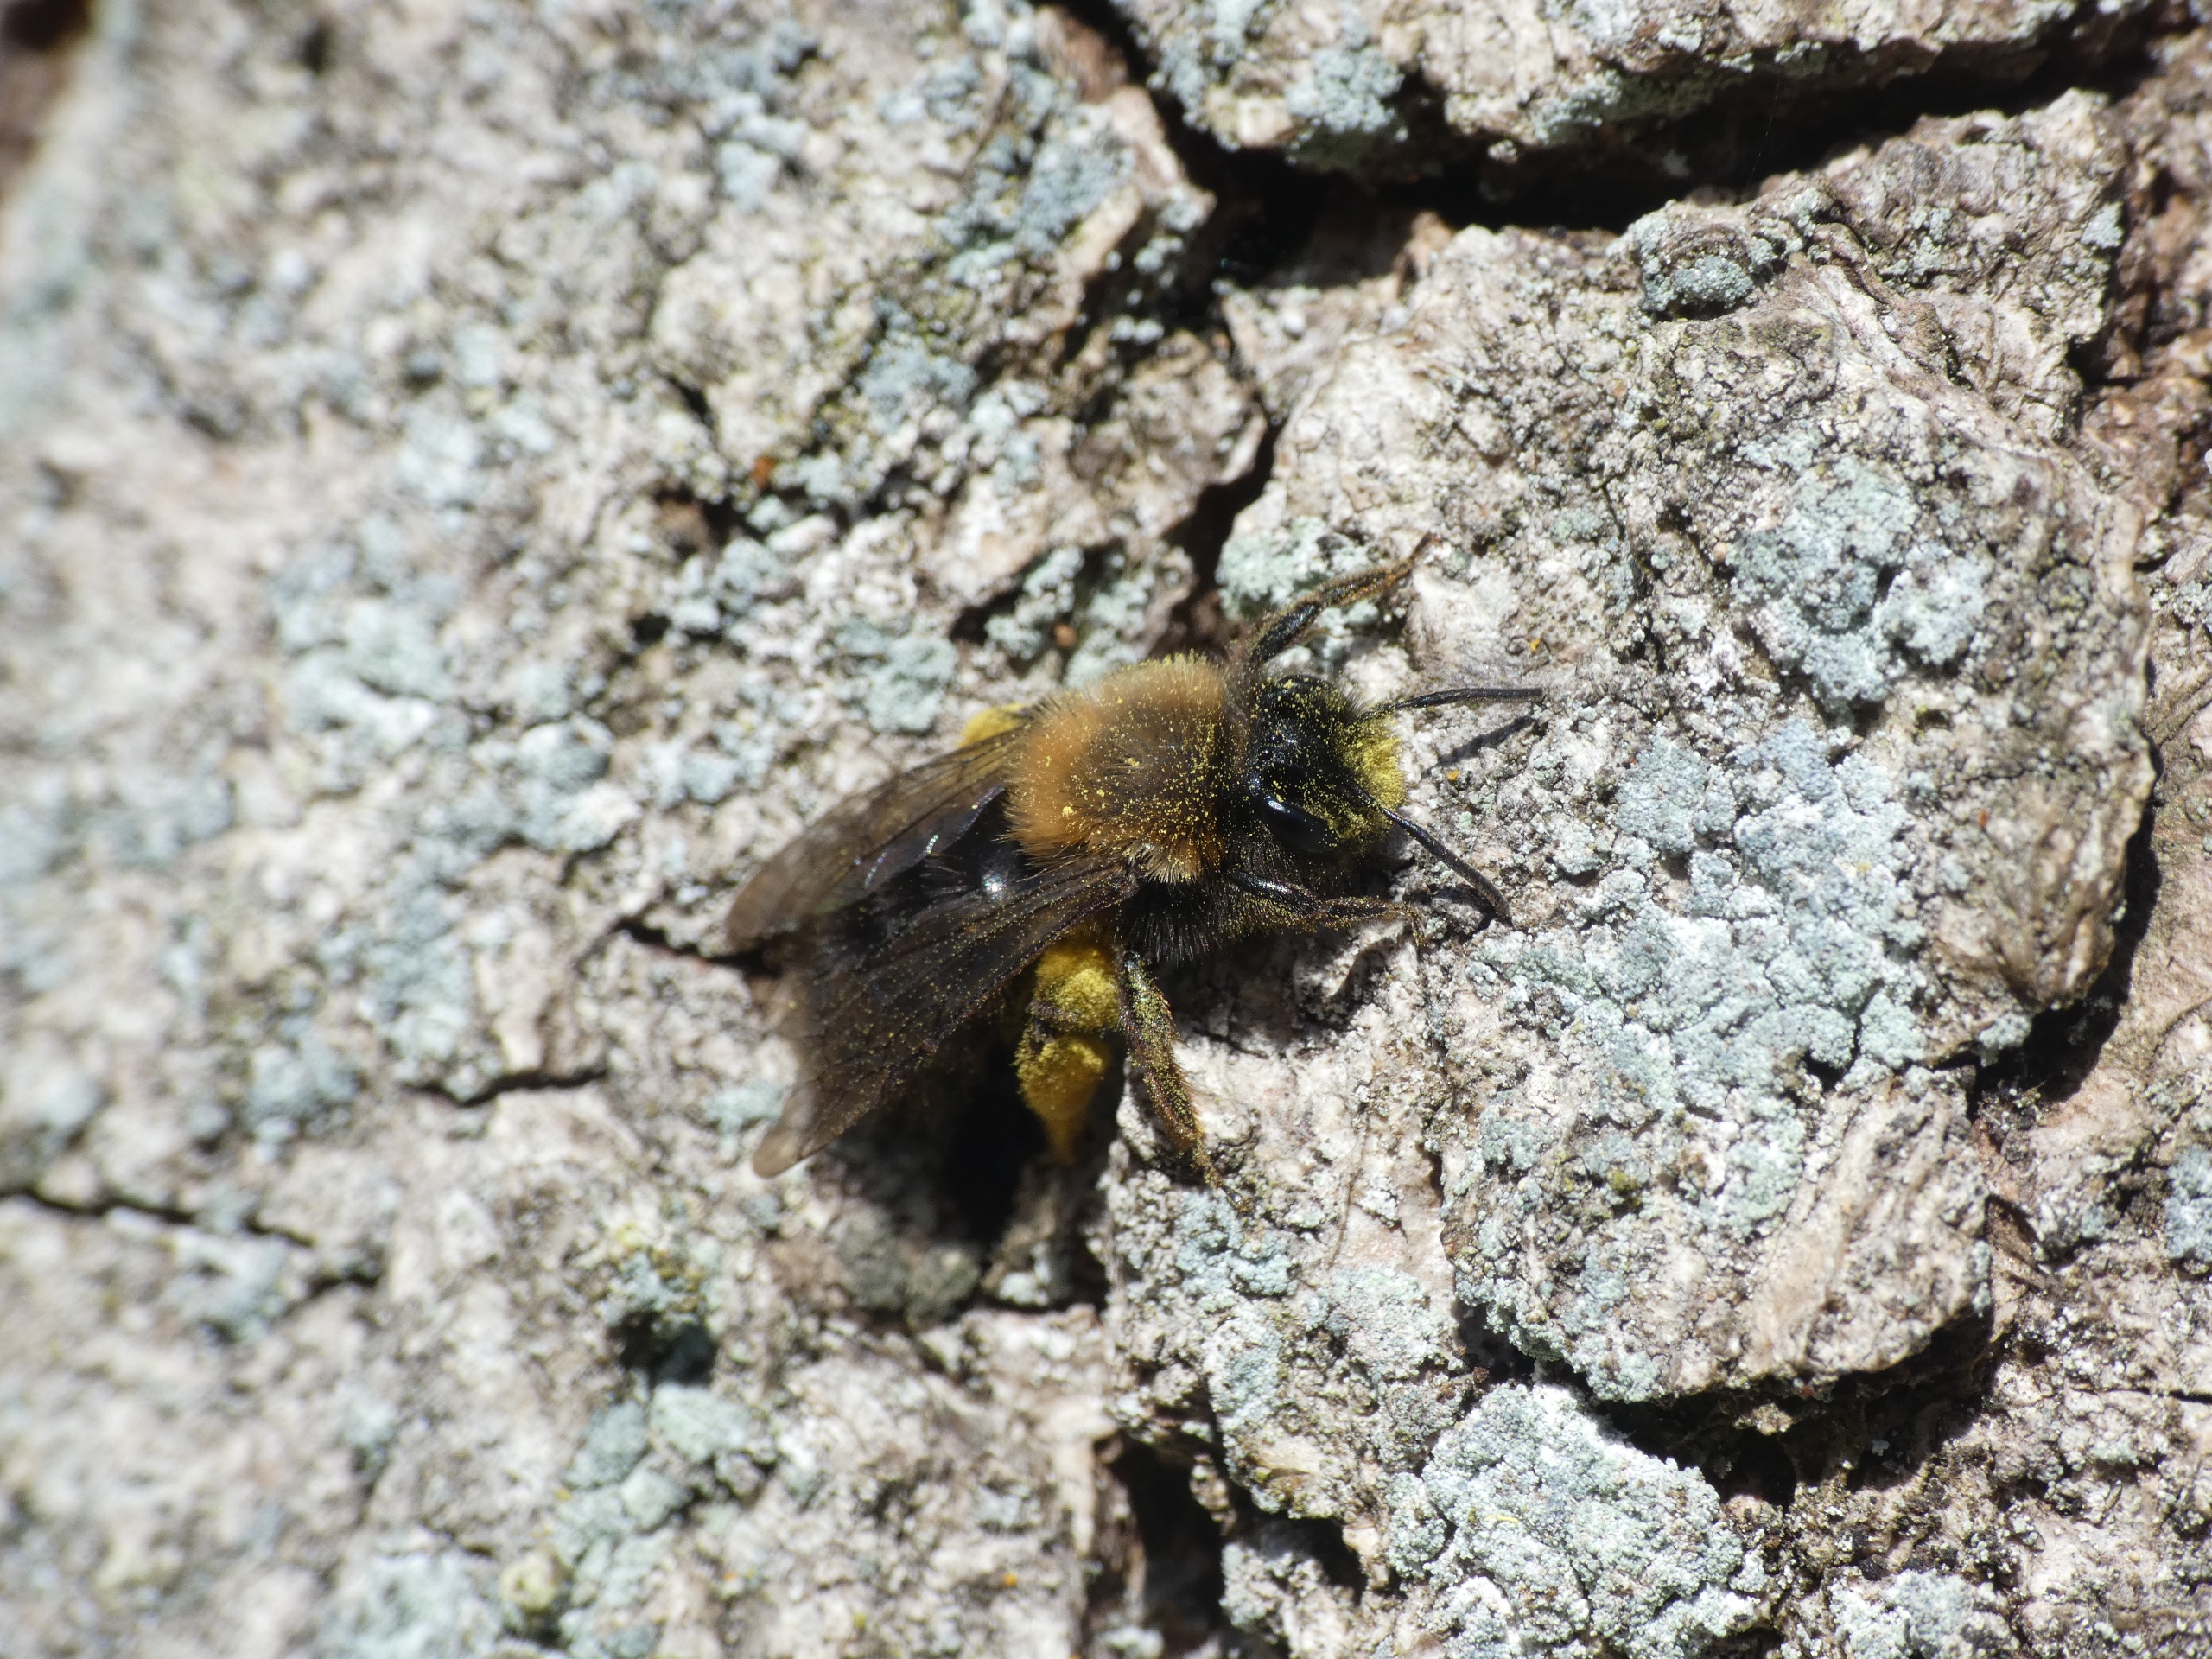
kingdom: Animalia
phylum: Arthropoda
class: Insecta
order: Hymenoptera
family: Andrenidae
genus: Andrena
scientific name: Andrena clarkella
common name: Rødbrystet jordbi
